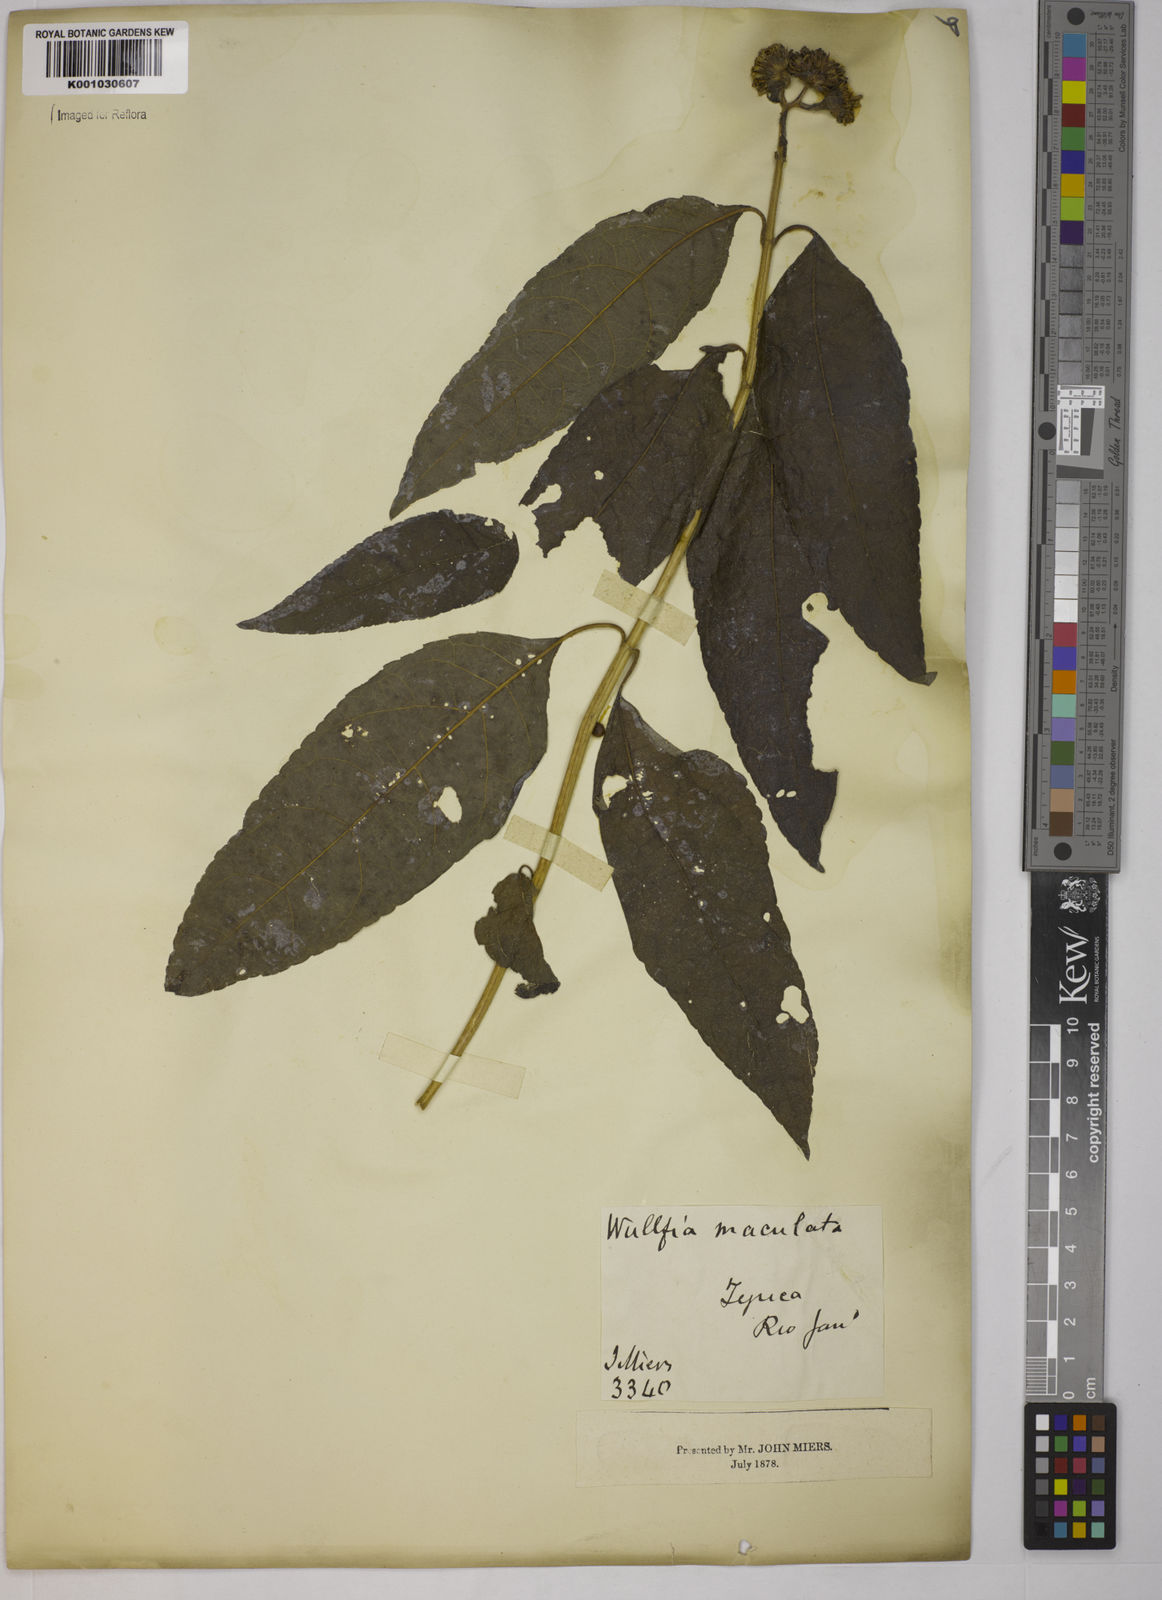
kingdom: Plantae
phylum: Tracheophyta
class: Magnoliopsida
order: Asterales
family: Asteraceae
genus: Tilesia
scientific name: Tilesia baccata
